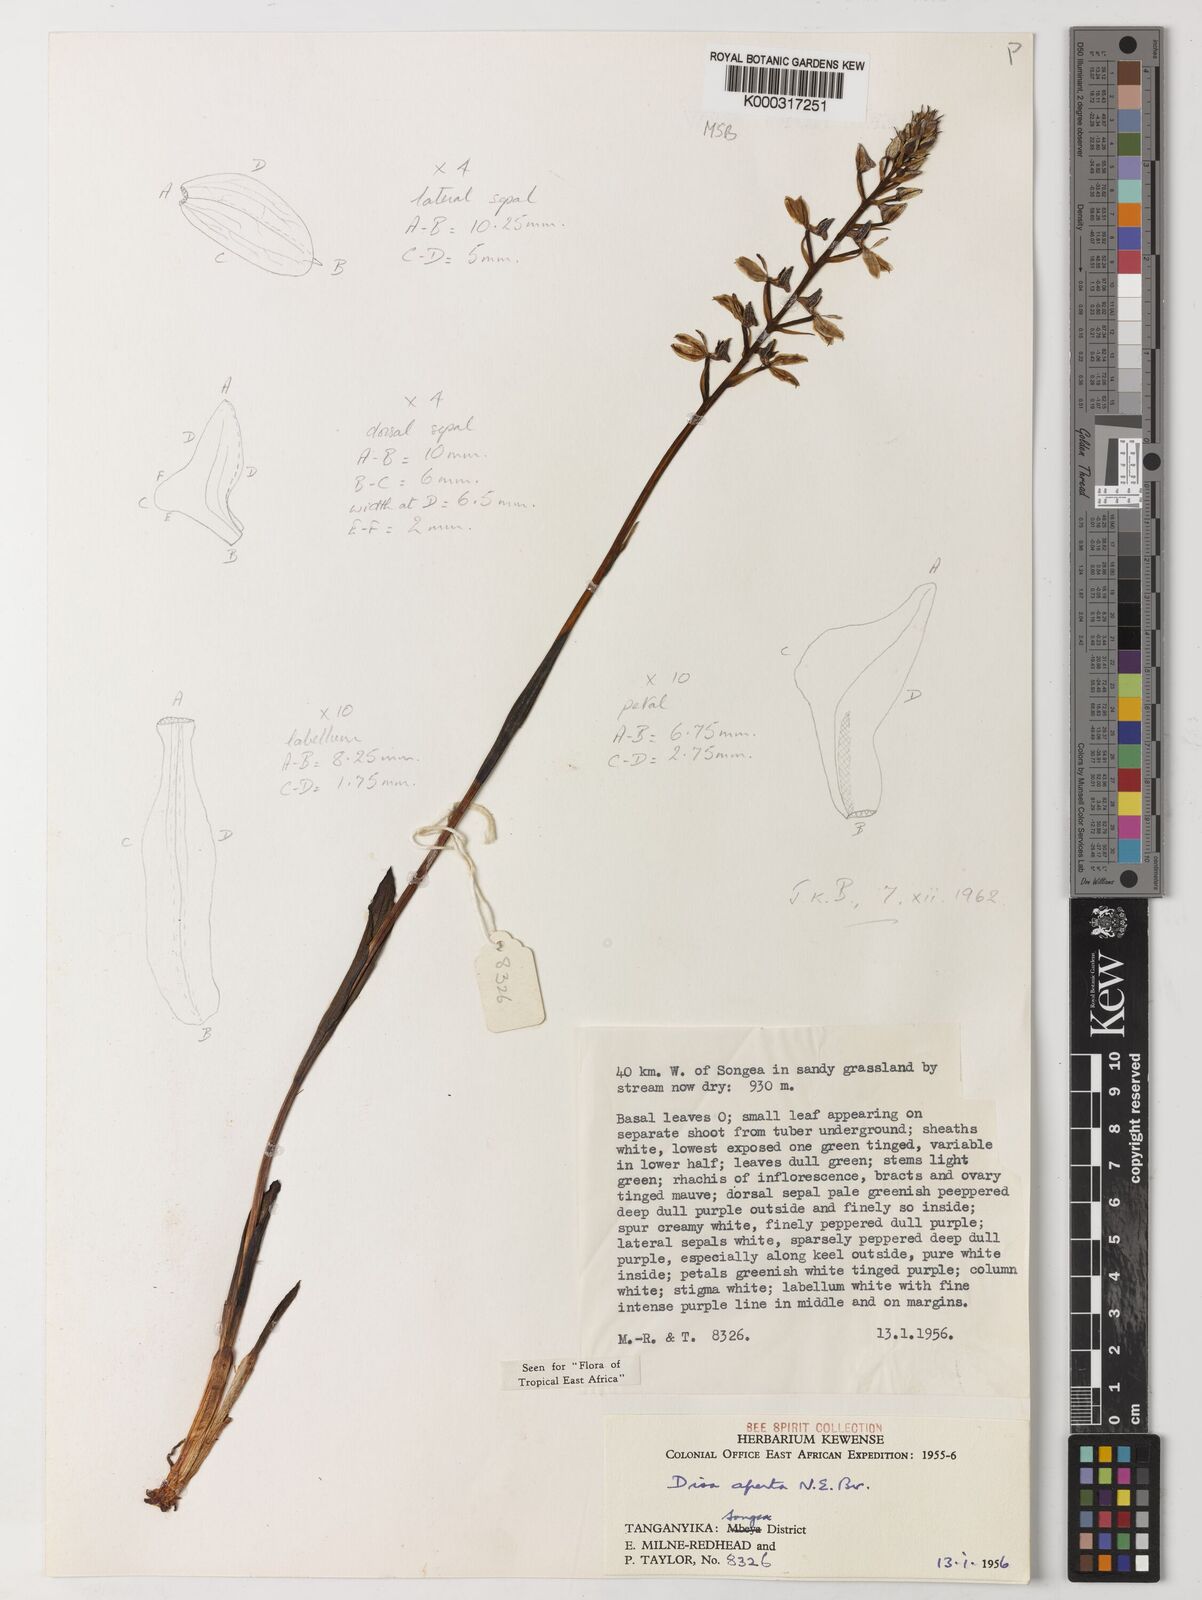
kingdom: Plantae
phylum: Tracheophyta
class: Liliopsida
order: Asparagales
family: Orchidaceae
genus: Disa
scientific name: Disa aperta
